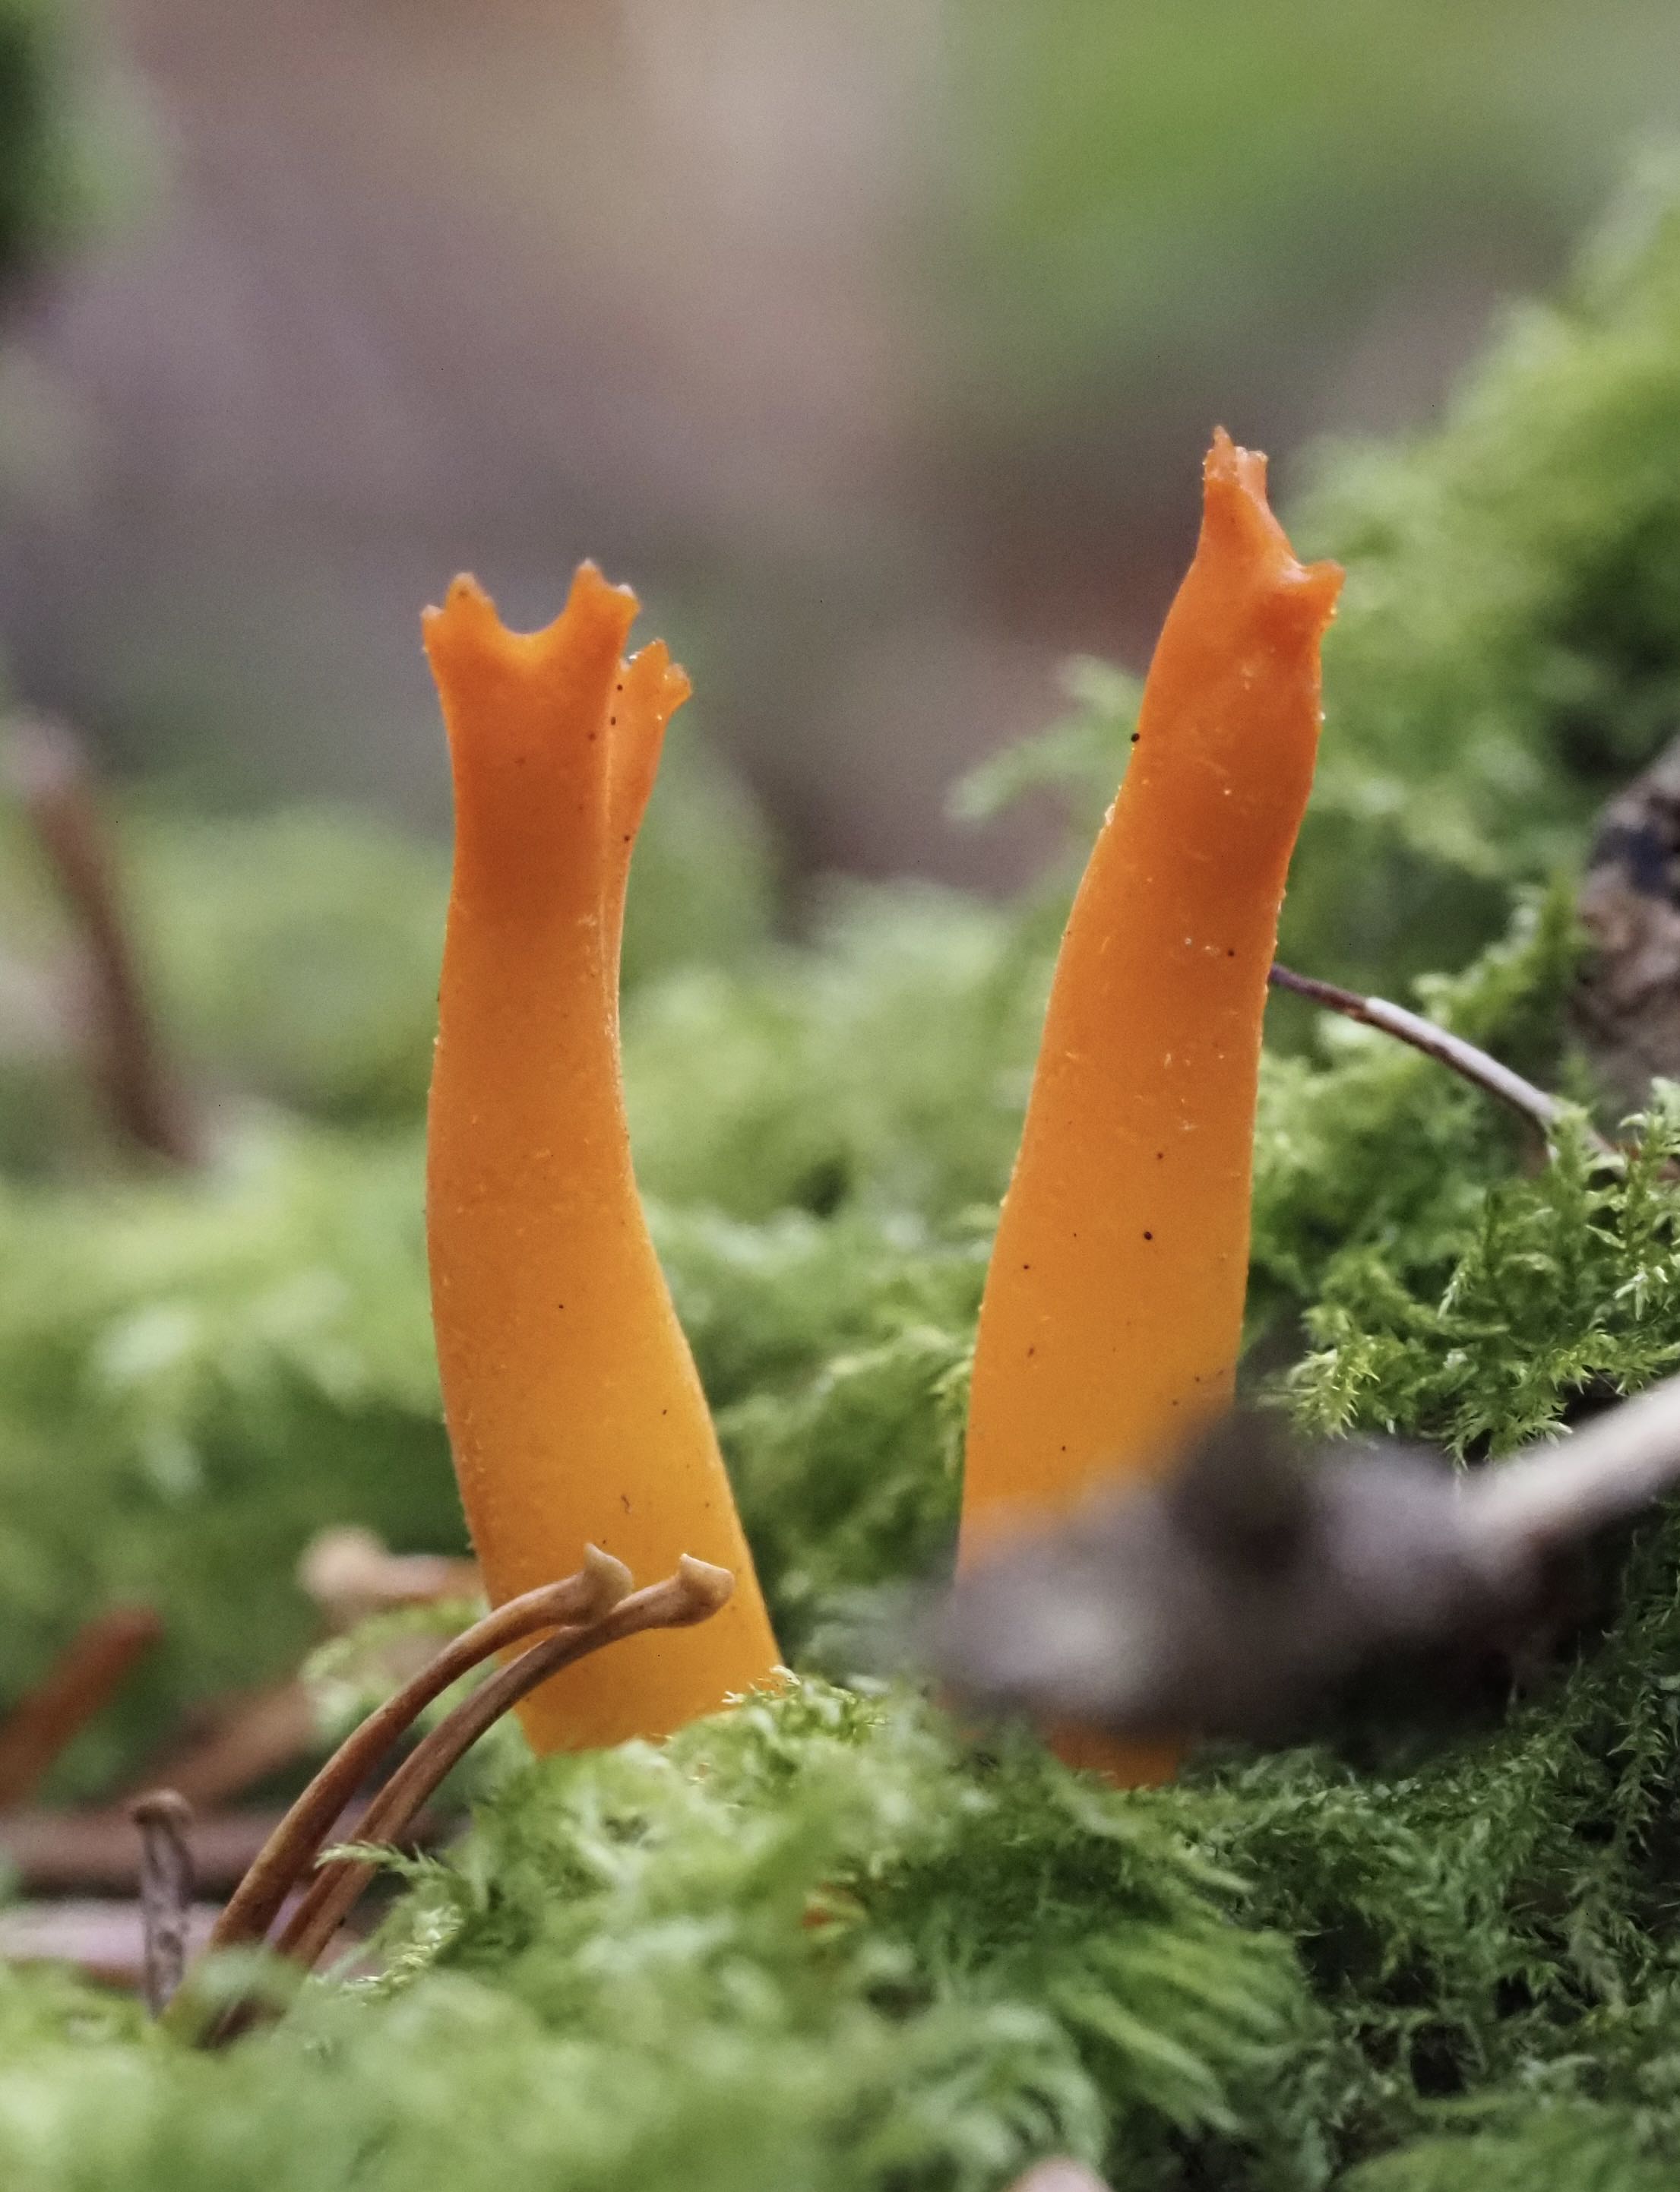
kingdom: Fungi
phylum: Basidiomycota
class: Dacrymycetes
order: Dacrymycetales
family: Dacrymycetaceae
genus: Calocera
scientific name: Calocera viscosa
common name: almindelig guldgaffel
